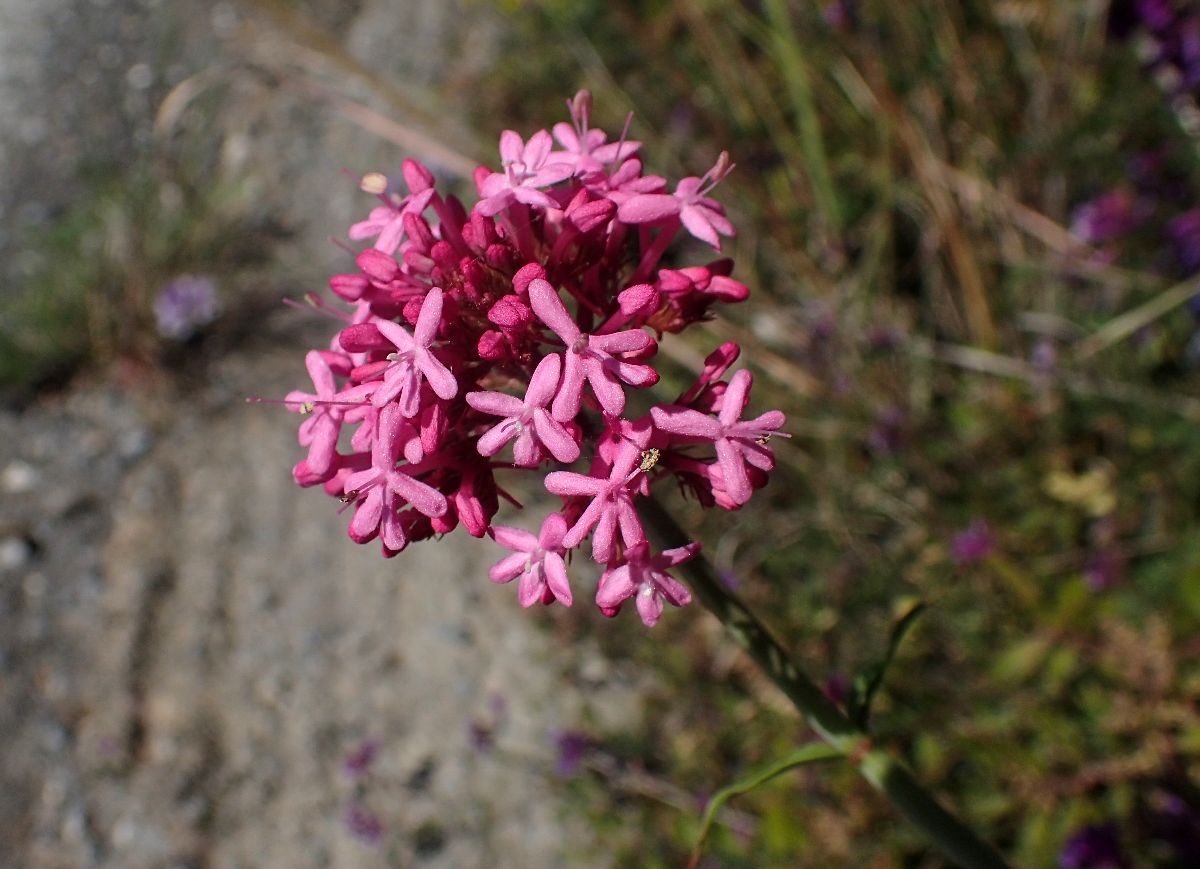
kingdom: Plantae
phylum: Tracheophyta
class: Magnoliopsida
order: Dipsacales
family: Caprifoliaceae
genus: Centranthus
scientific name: Centranthus ruber
